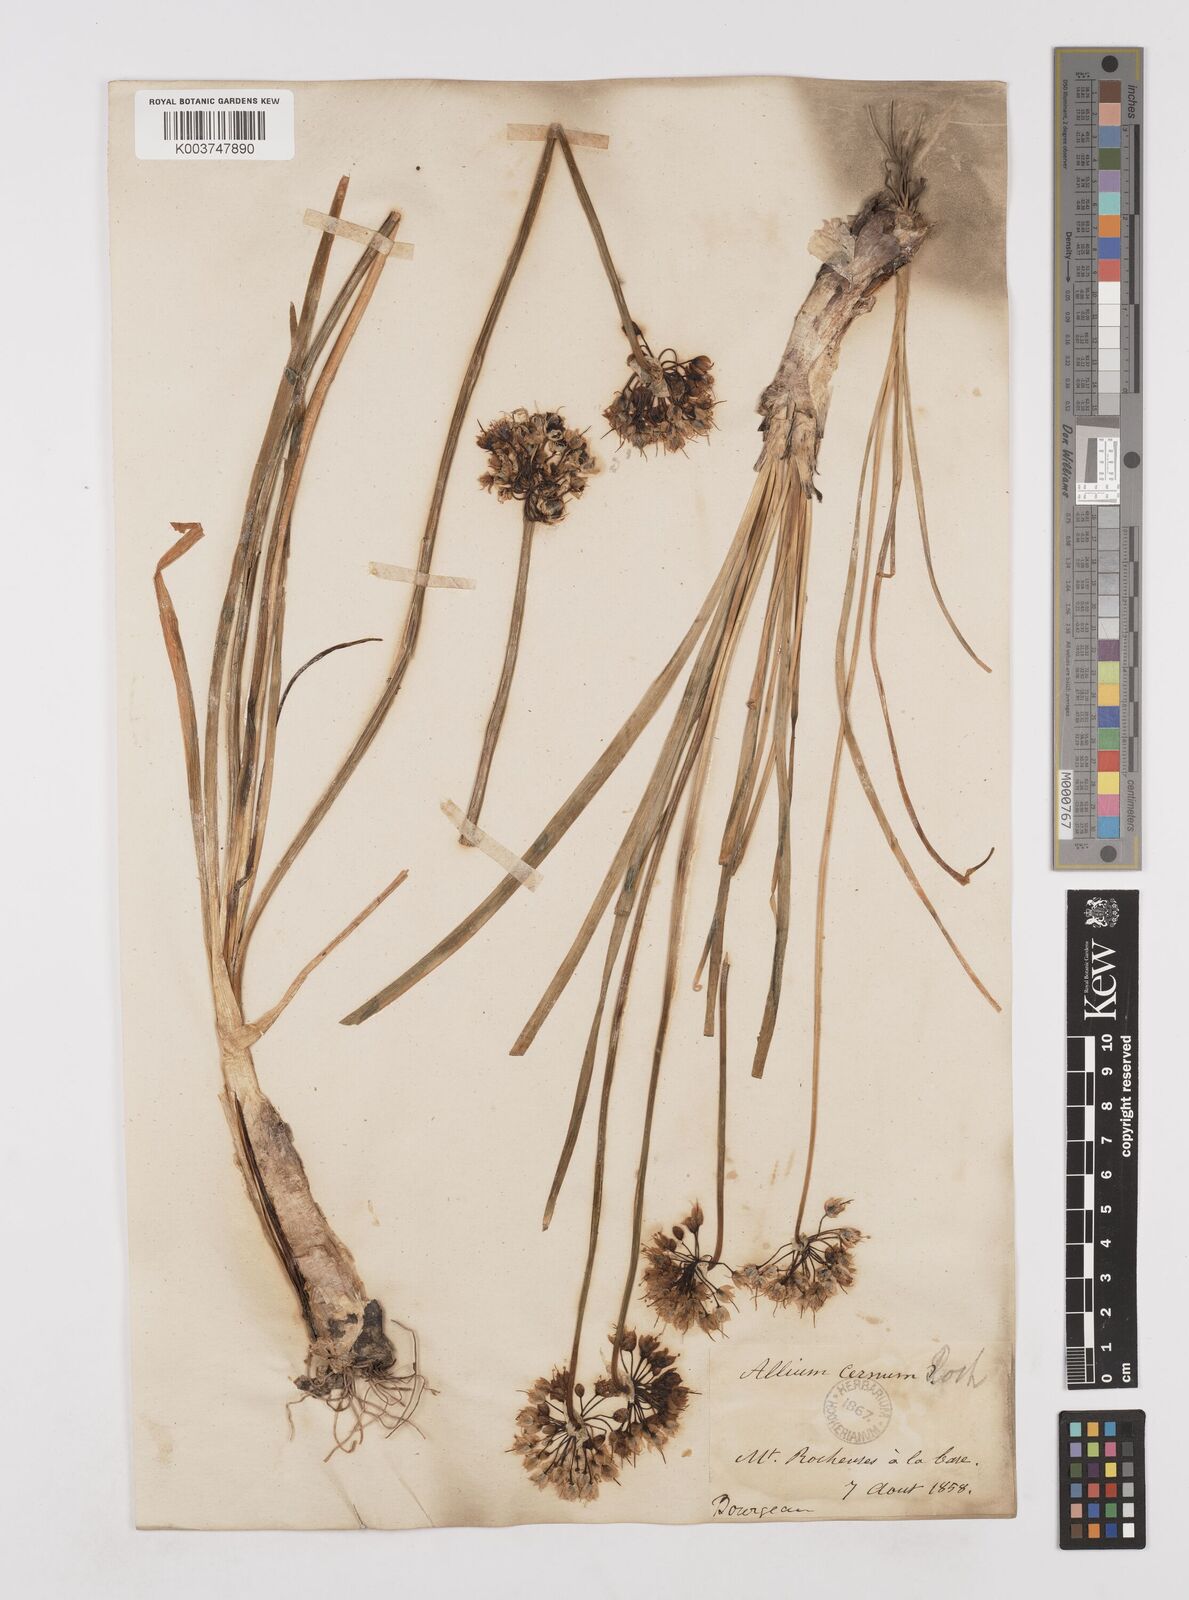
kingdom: Plantae
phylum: Tracheophyta
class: Liliopsida
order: Asparagales
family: Amaryllidaceae
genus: Allium
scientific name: Allium cernuum
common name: Nodding onion
